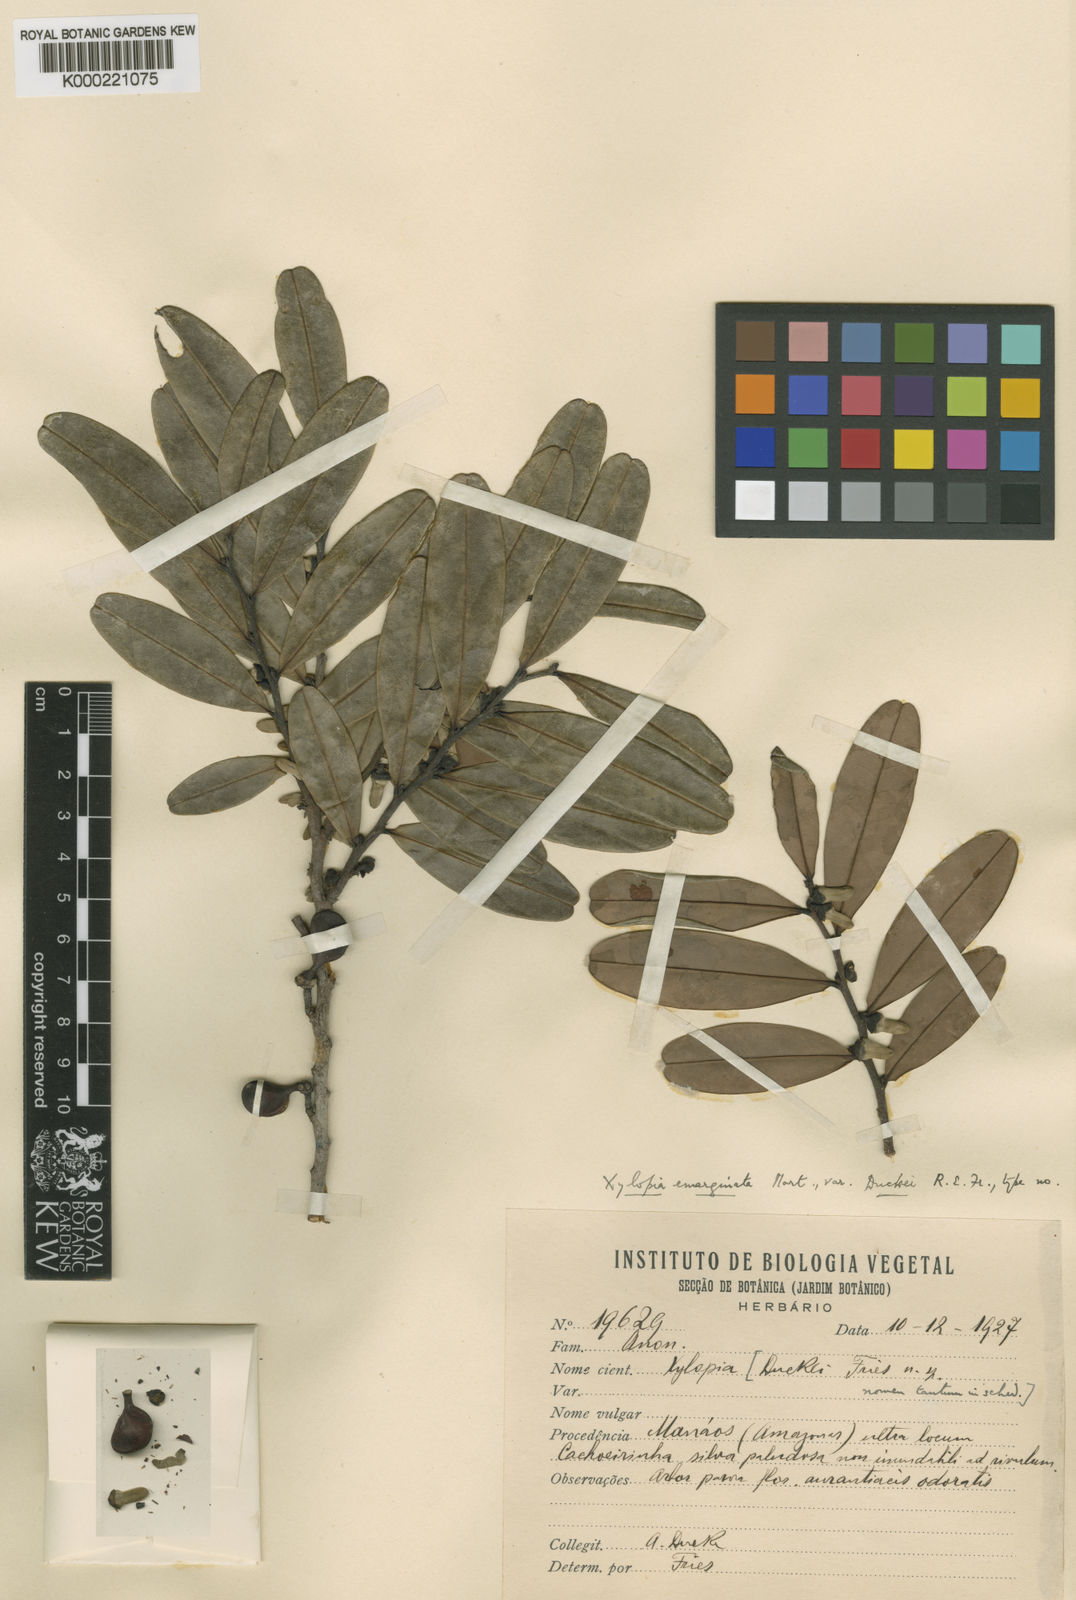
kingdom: Plantae
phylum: Tracheophyta
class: Magnoliopsida
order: Magnoliales
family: Annonaceae
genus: Xylopia
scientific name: Xylopia emarginata
